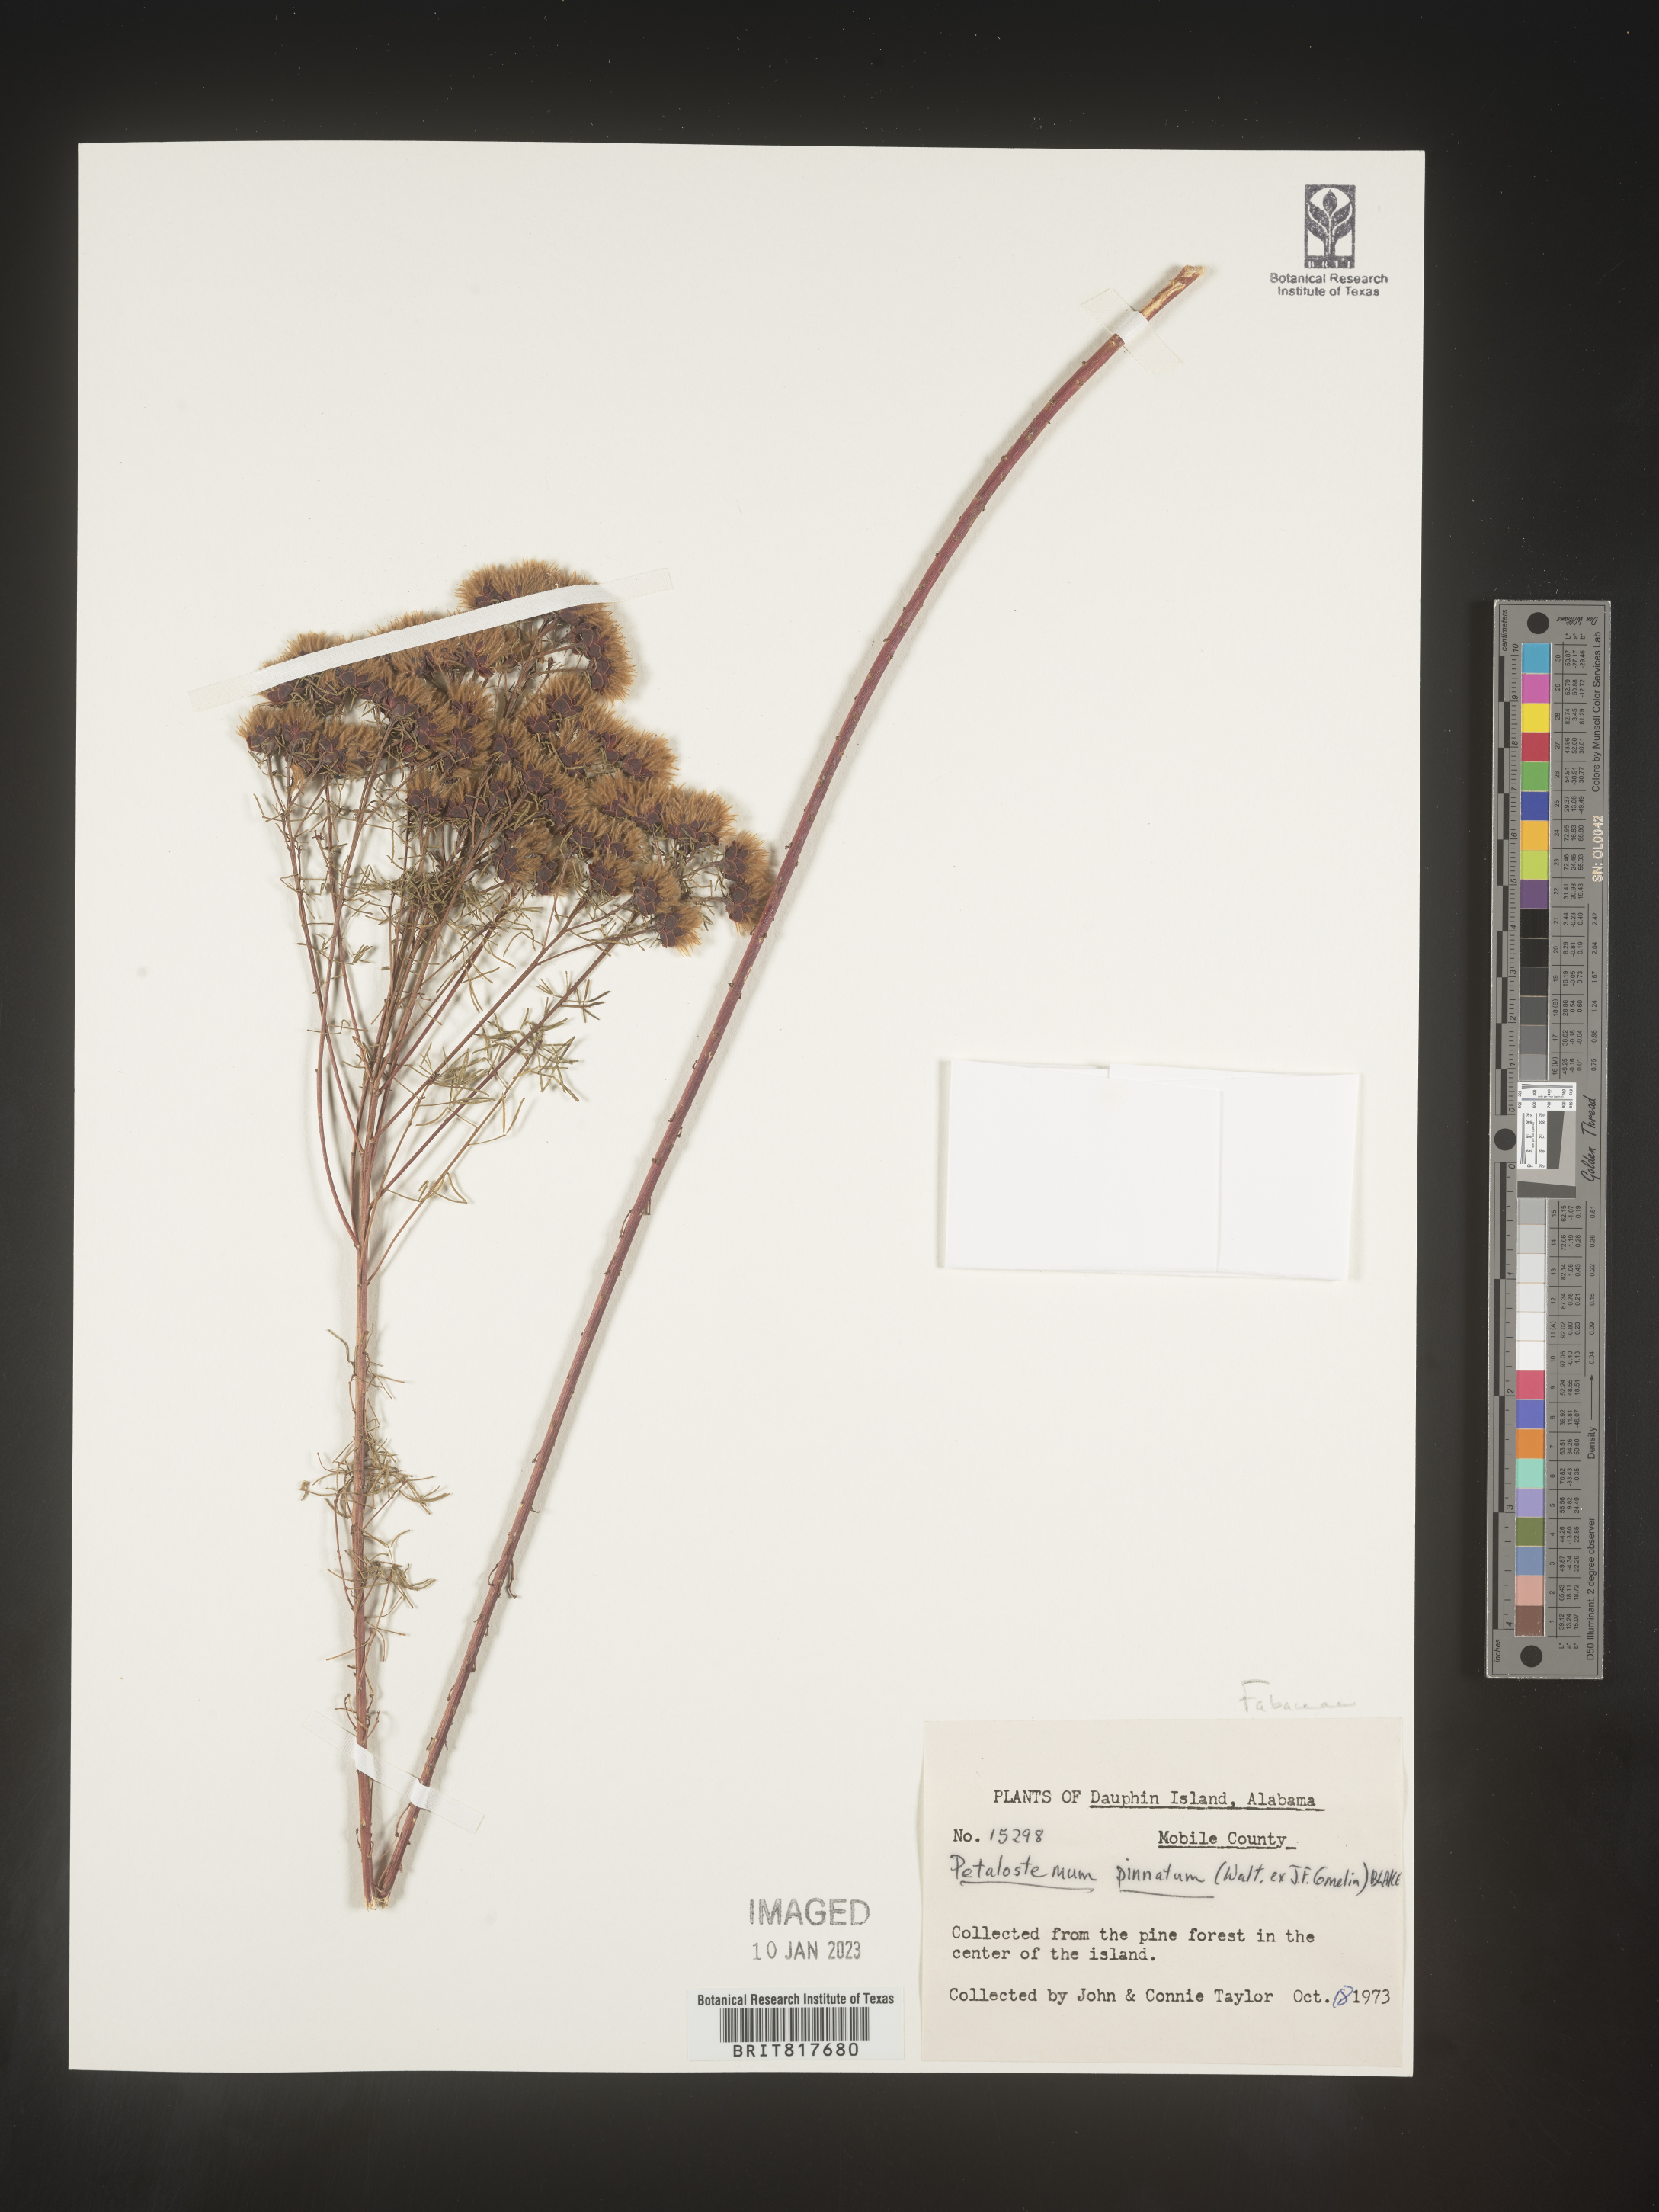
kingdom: Plantae
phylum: Tracheophyta
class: Magnoliopsida
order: Fabales
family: Fabaceae
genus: Dalea
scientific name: Dalea pinnata
